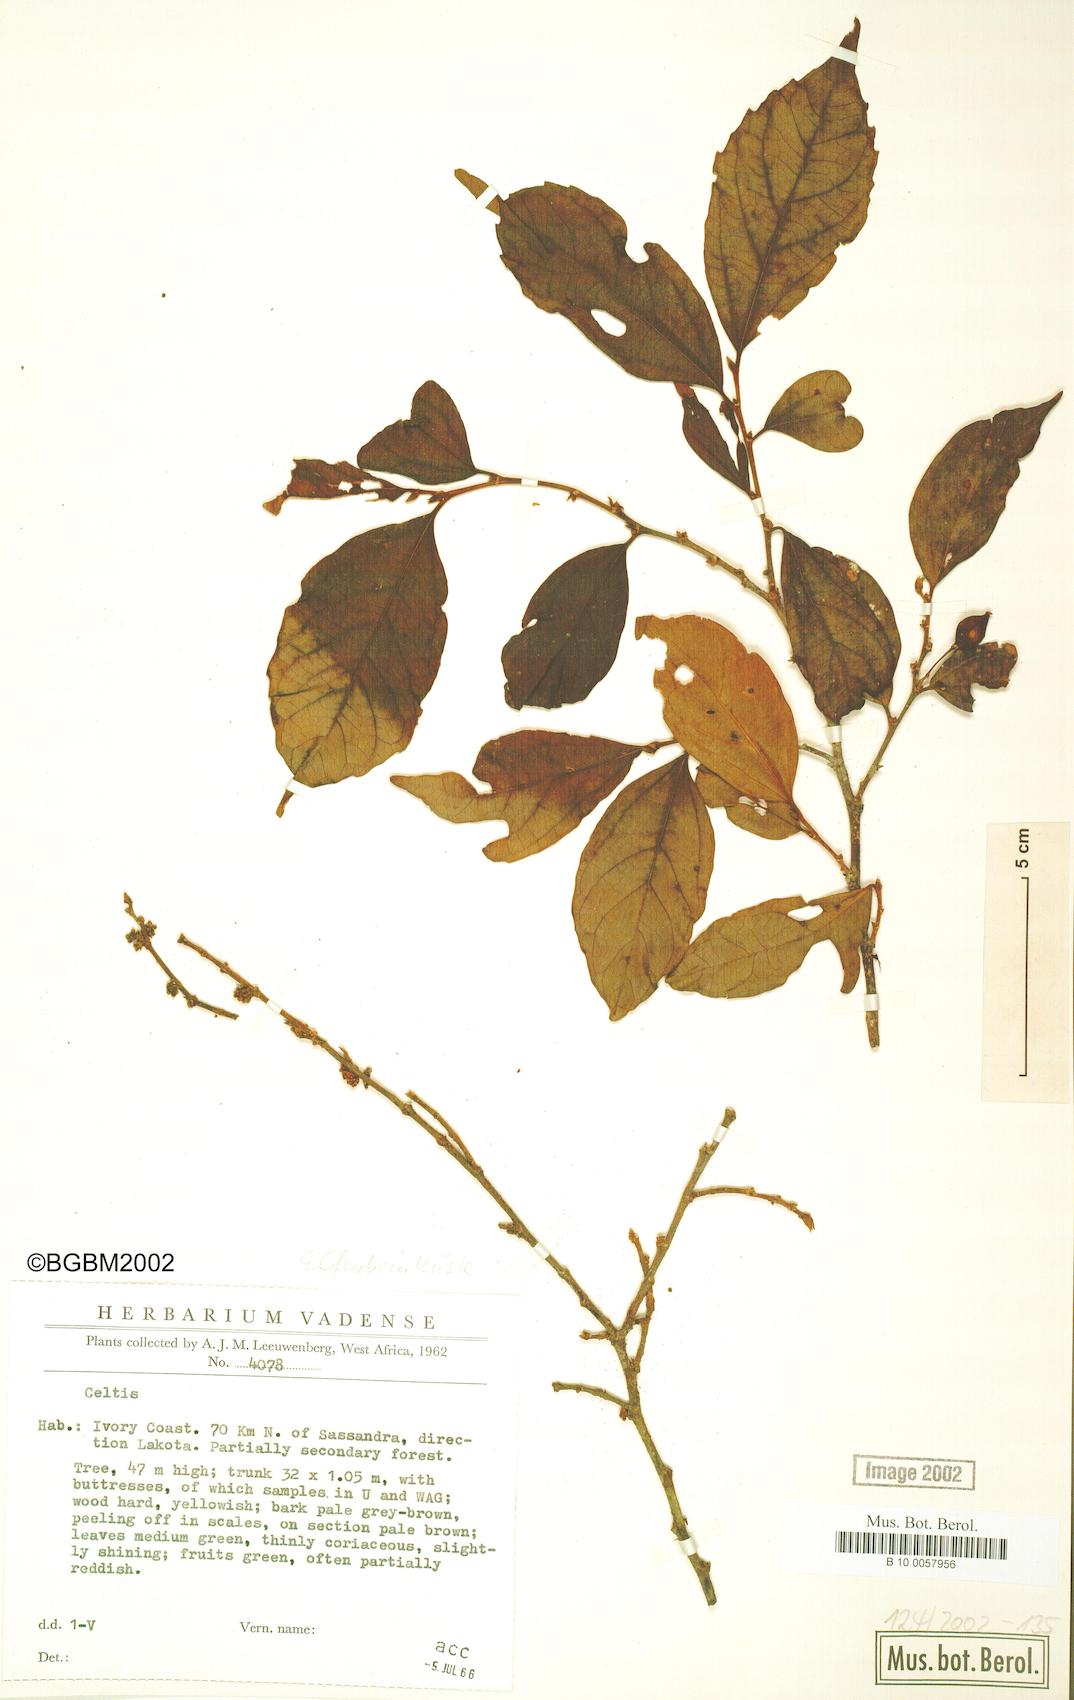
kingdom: Plantae
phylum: Tracheophyta
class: Magnoliopsida
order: Rosales
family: Cannabaceae
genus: Celtis
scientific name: Celtis
